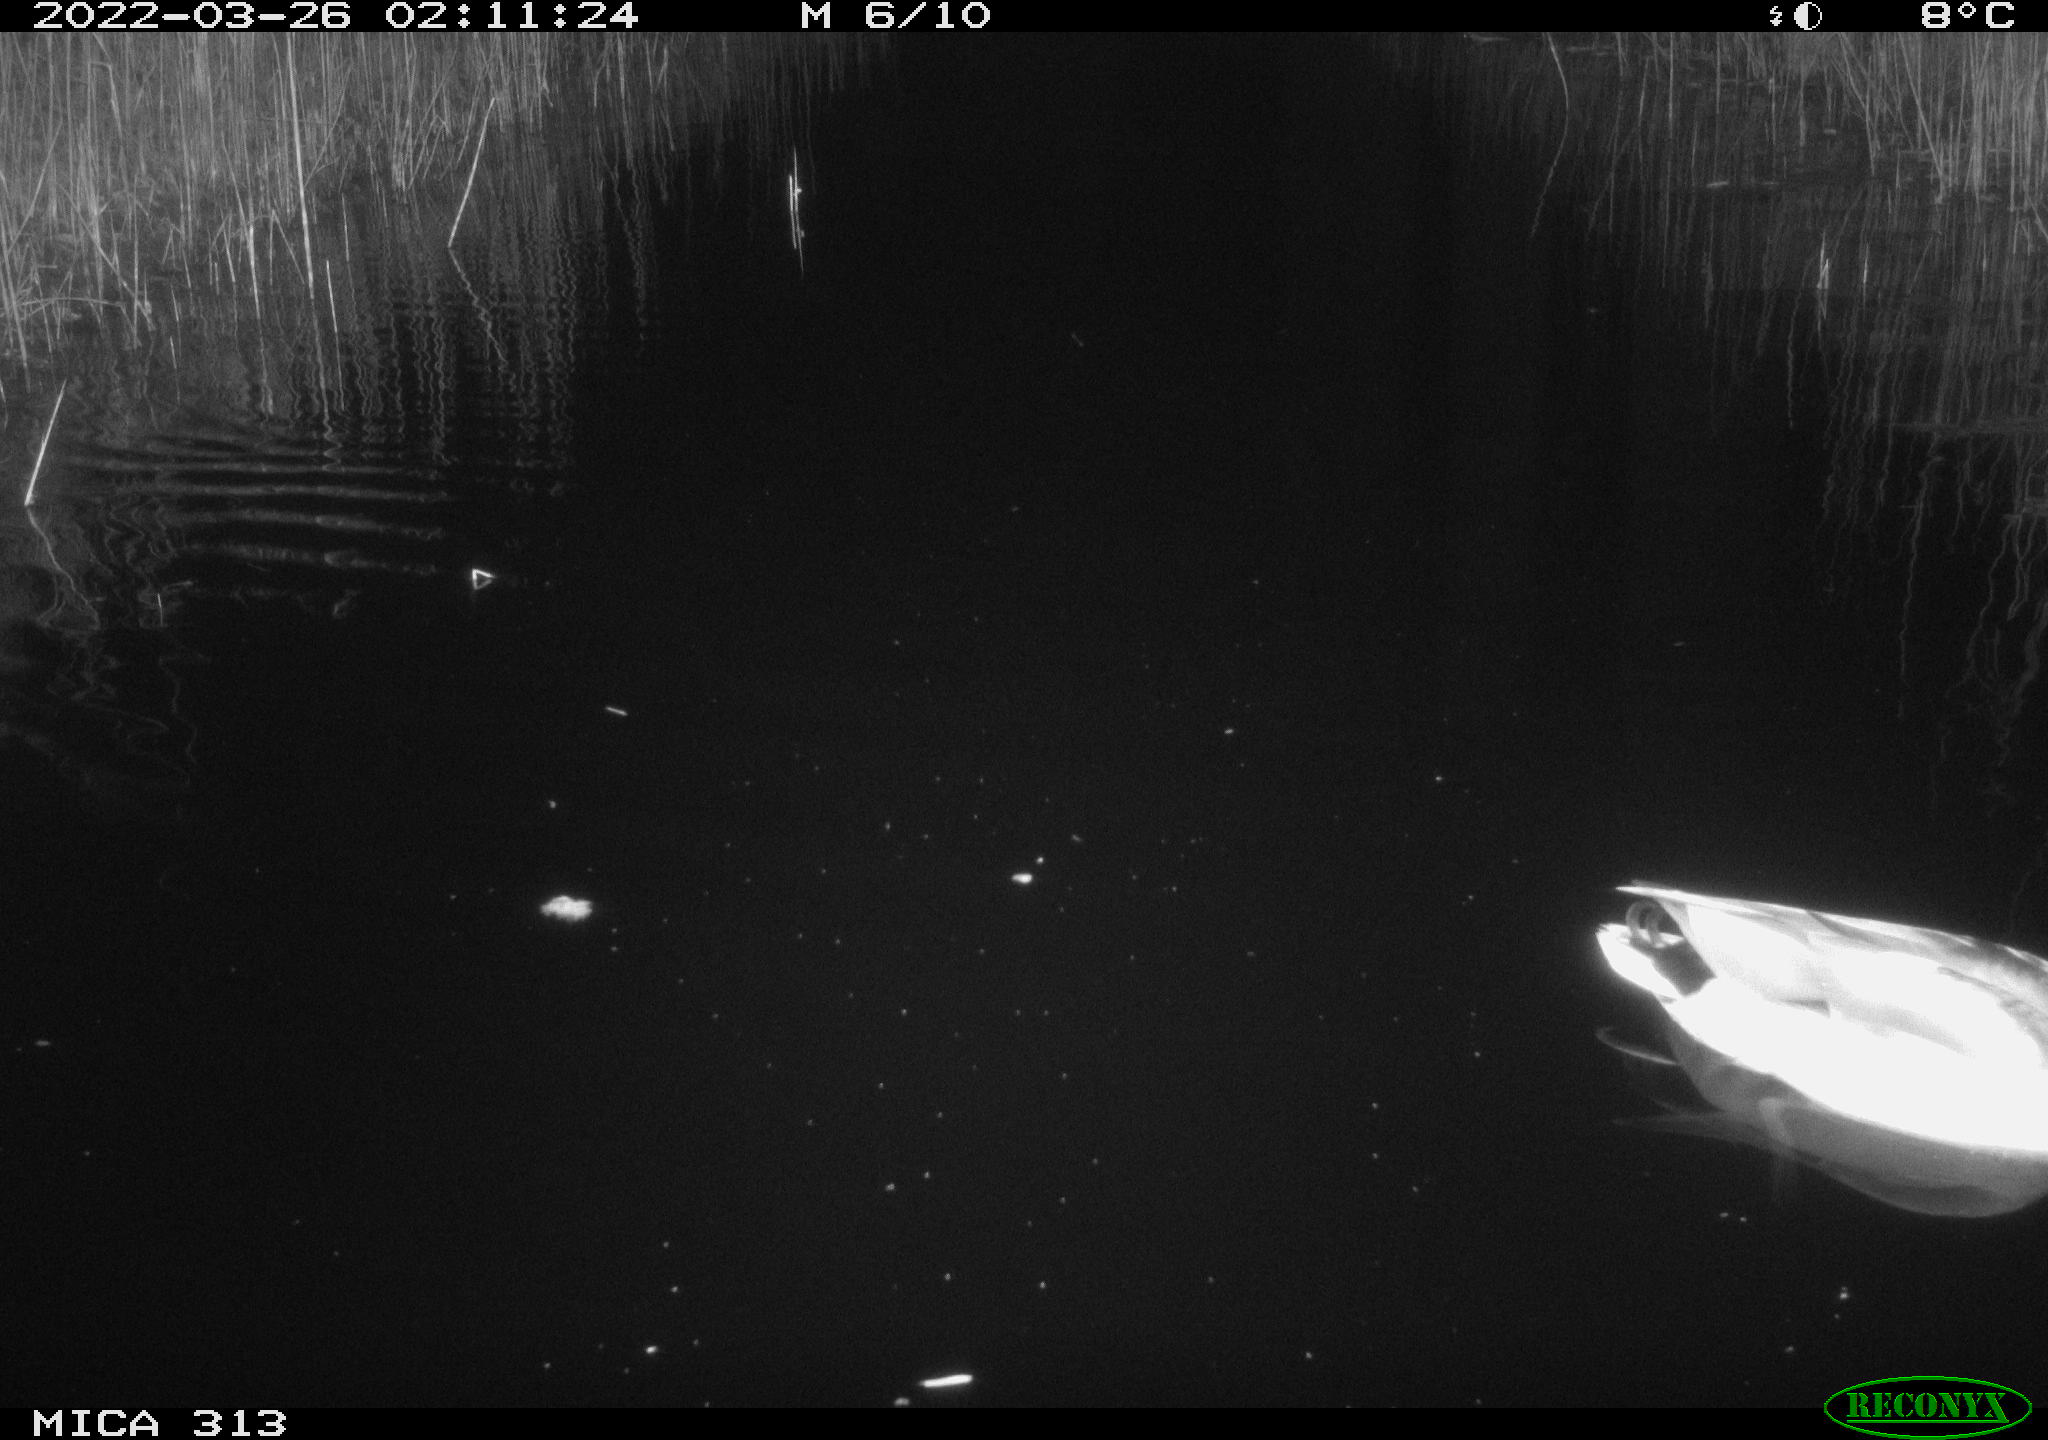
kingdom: Animalia
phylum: Chordata
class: Mammalia
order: Rodentia
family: Cricetidae
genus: Ondatra
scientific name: Ondatra zibethicus
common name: Muskrat
